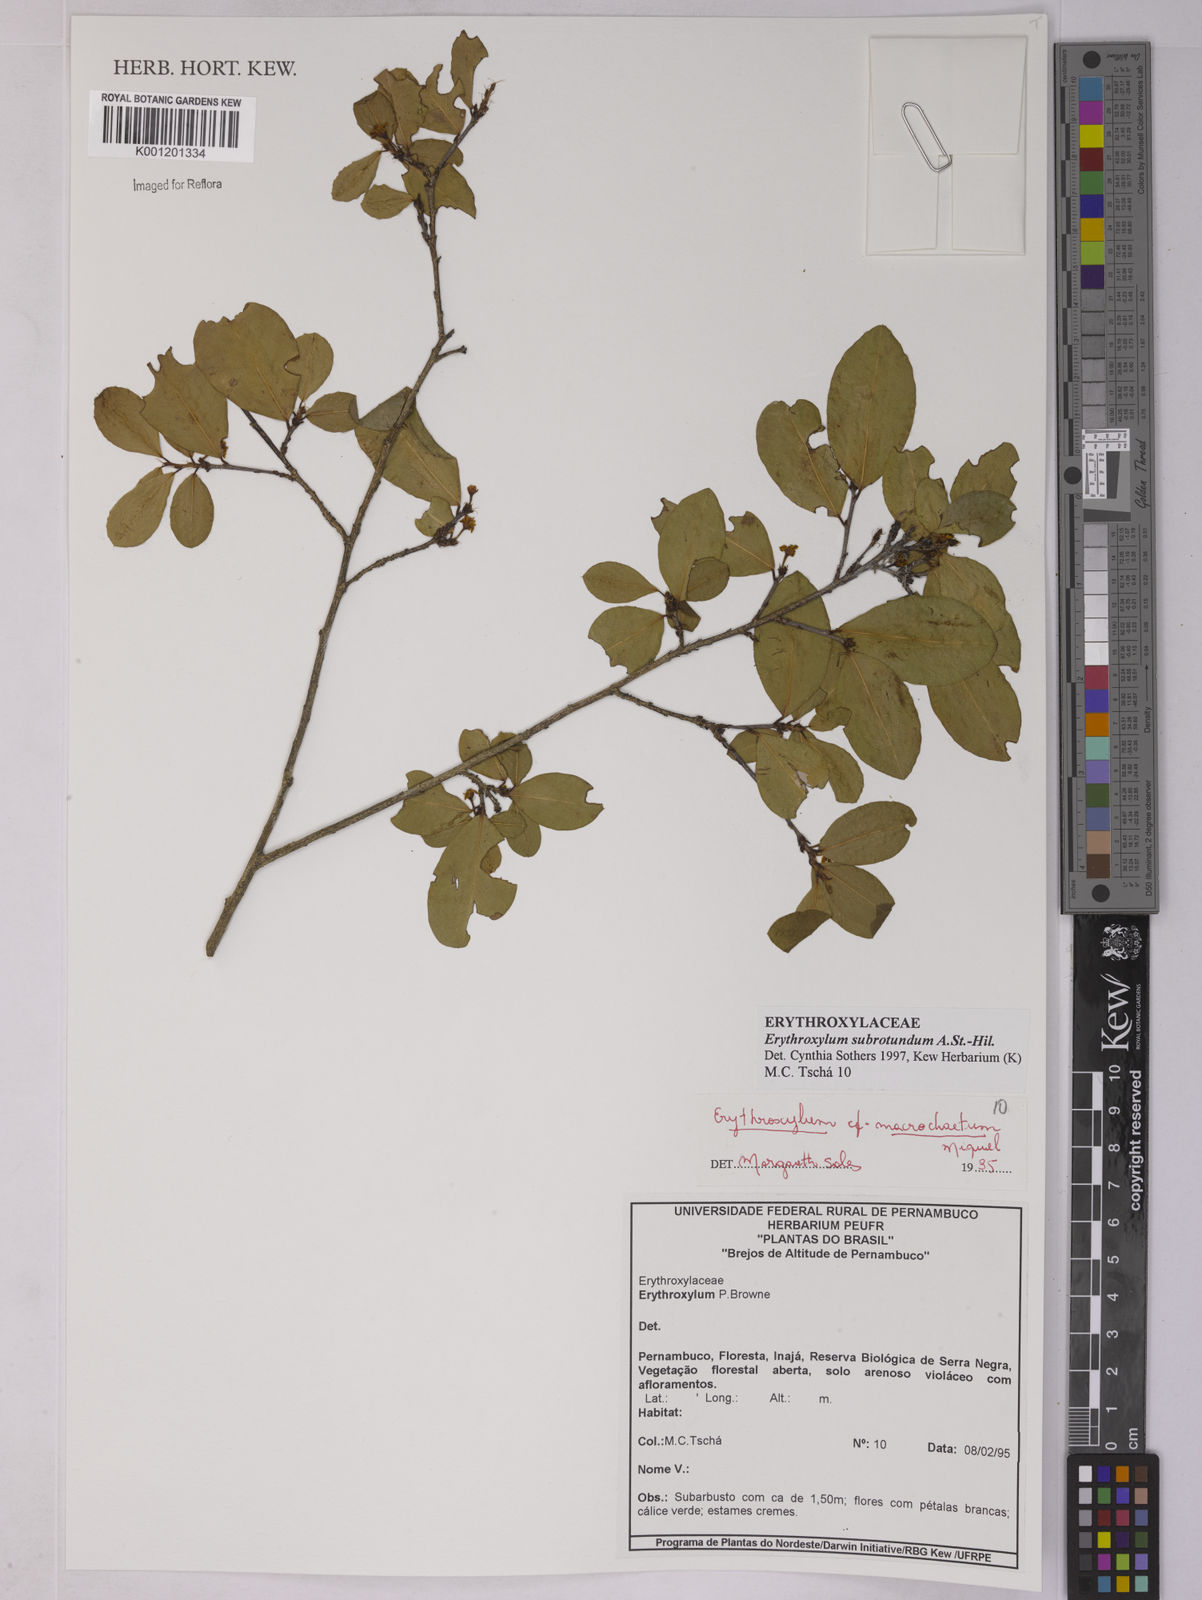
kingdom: Plantae
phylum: Tracheophyta
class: Magnoliopsida
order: Malpighiales
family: Erythroxylaceae
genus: Erythroxylum
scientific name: Erythroxylum subrotundum
